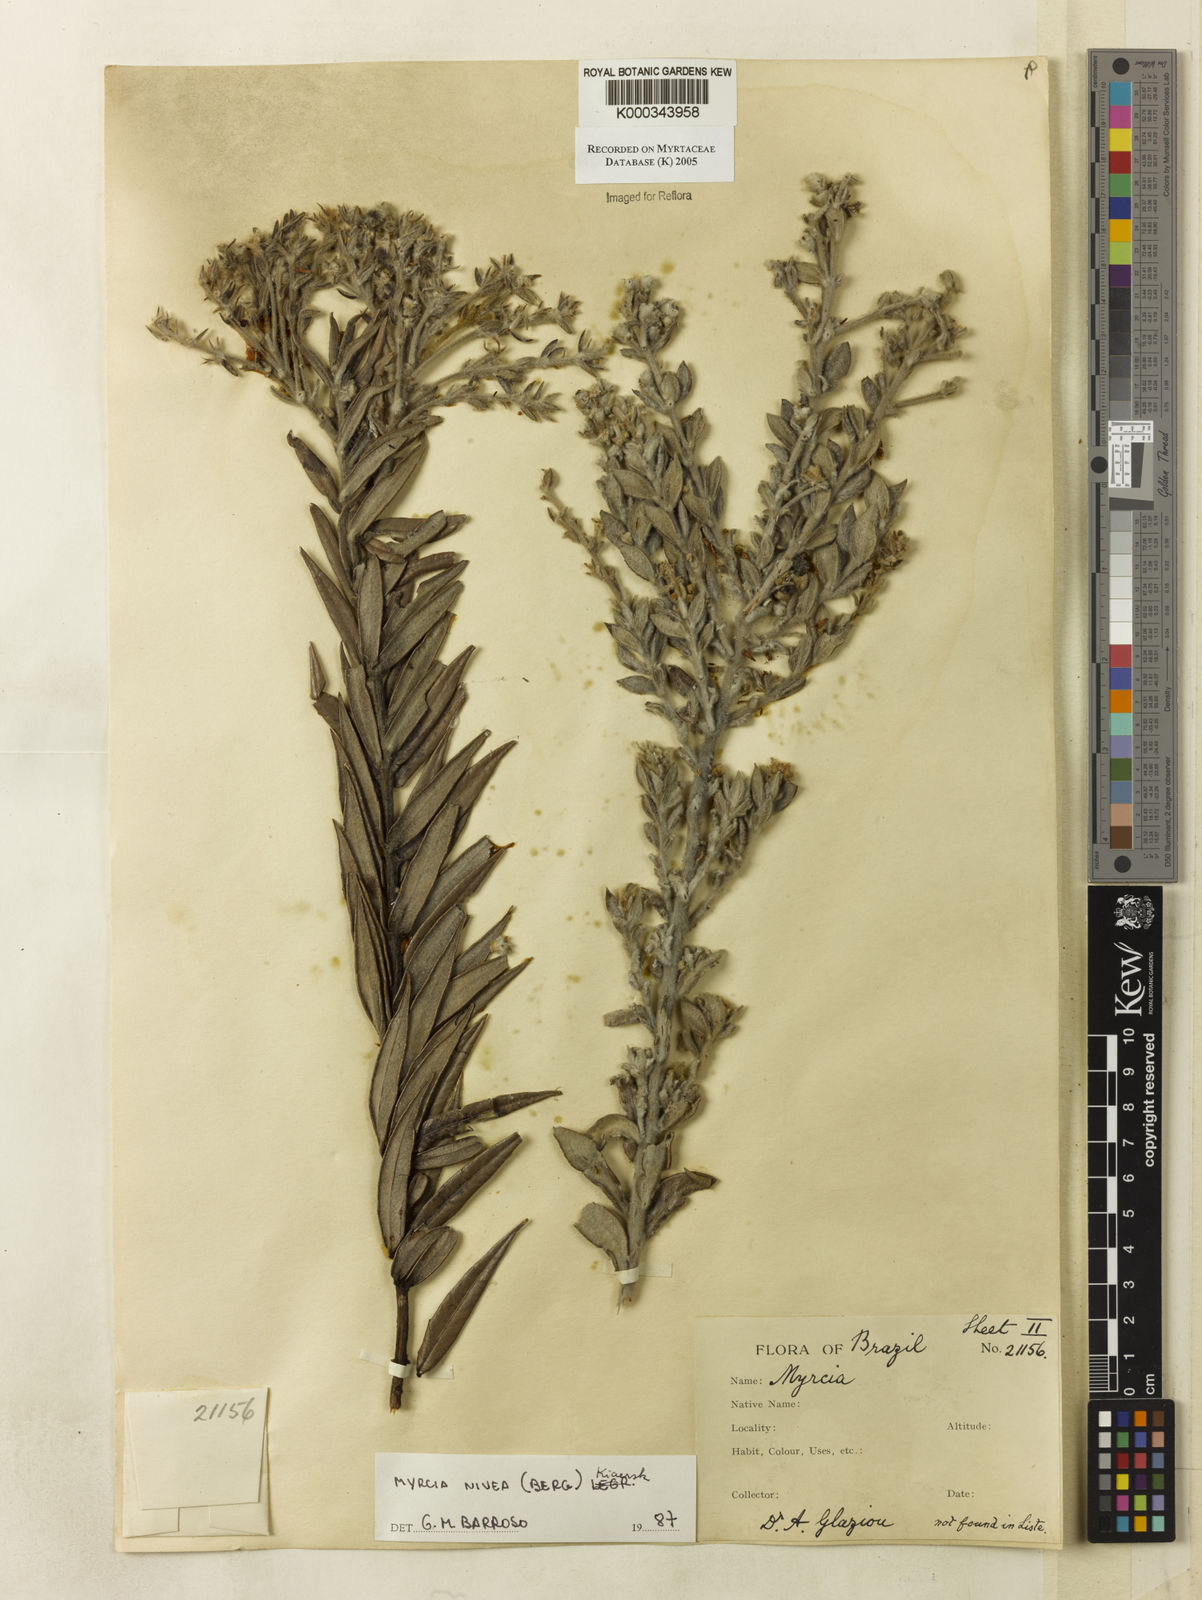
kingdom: Plantae
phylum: Tracheophyta
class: Magnoliopsida
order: Myrtales
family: Myrtaceae
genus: Myrcia
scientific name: Myrcia nivea
